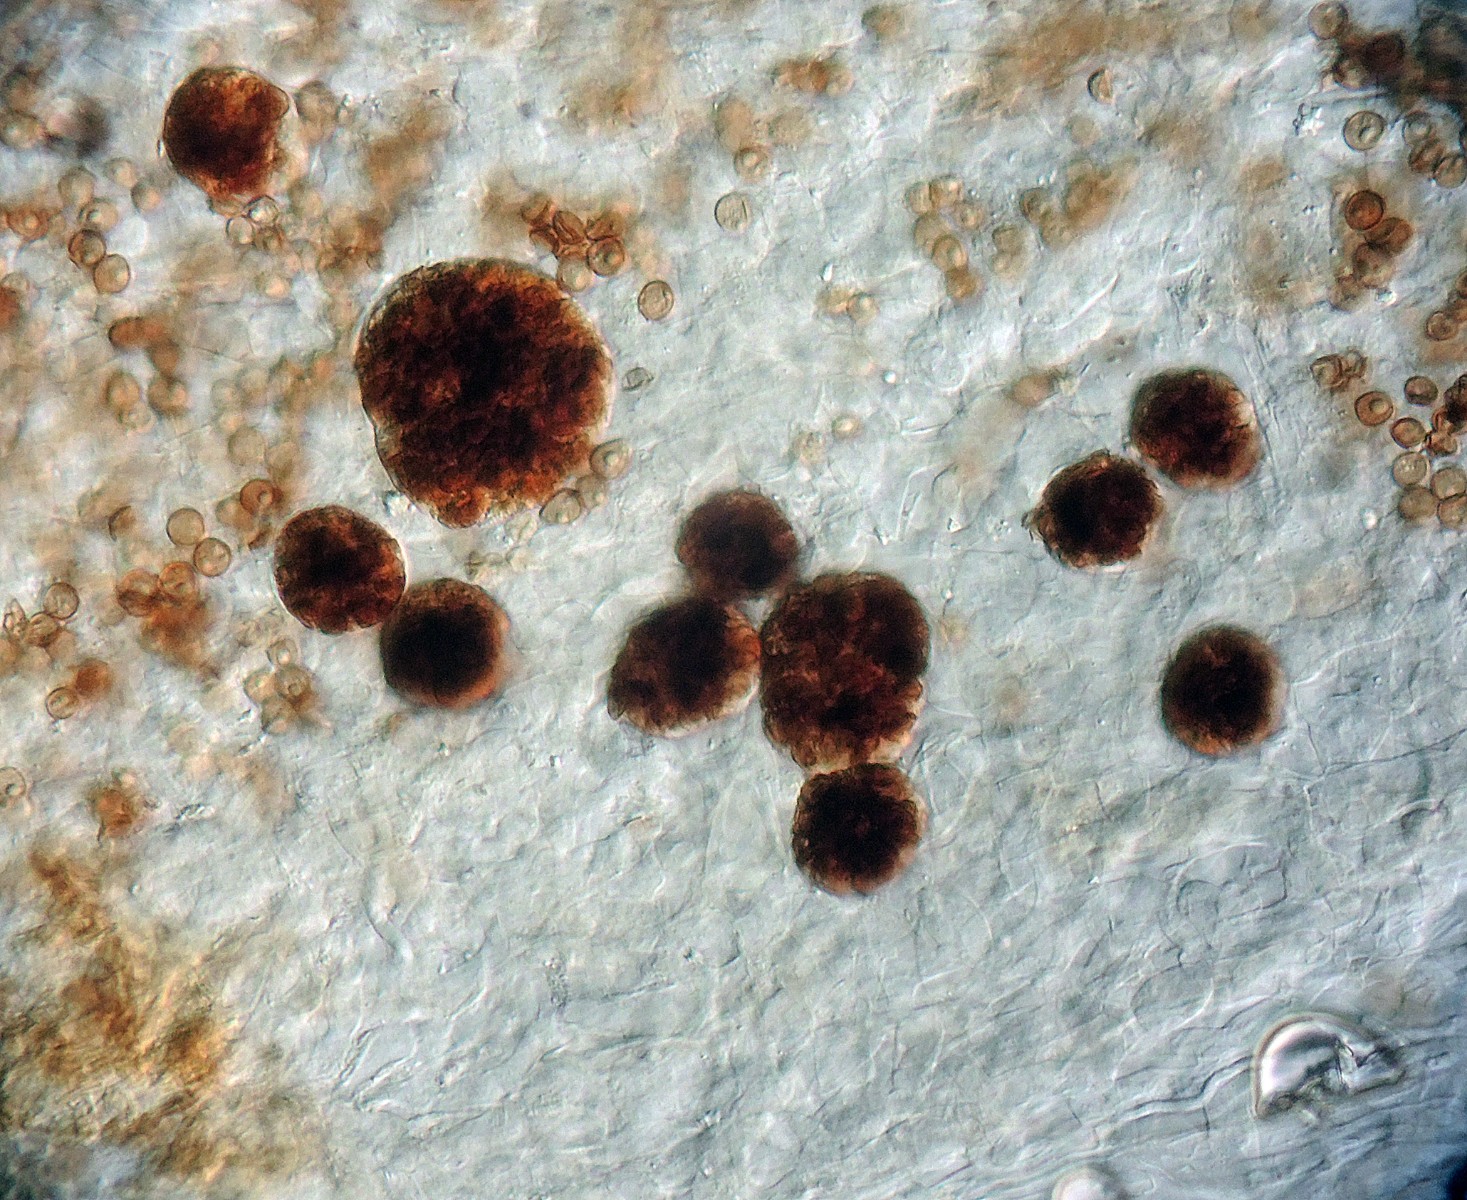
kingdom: Fungi
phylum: Basidiomycota
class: Agaricomycetes
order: Agaricales
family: Psathyrellaceae
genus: Coprinopsis
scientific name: Coprinopsis kubickae
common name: amfibie-blækhat
